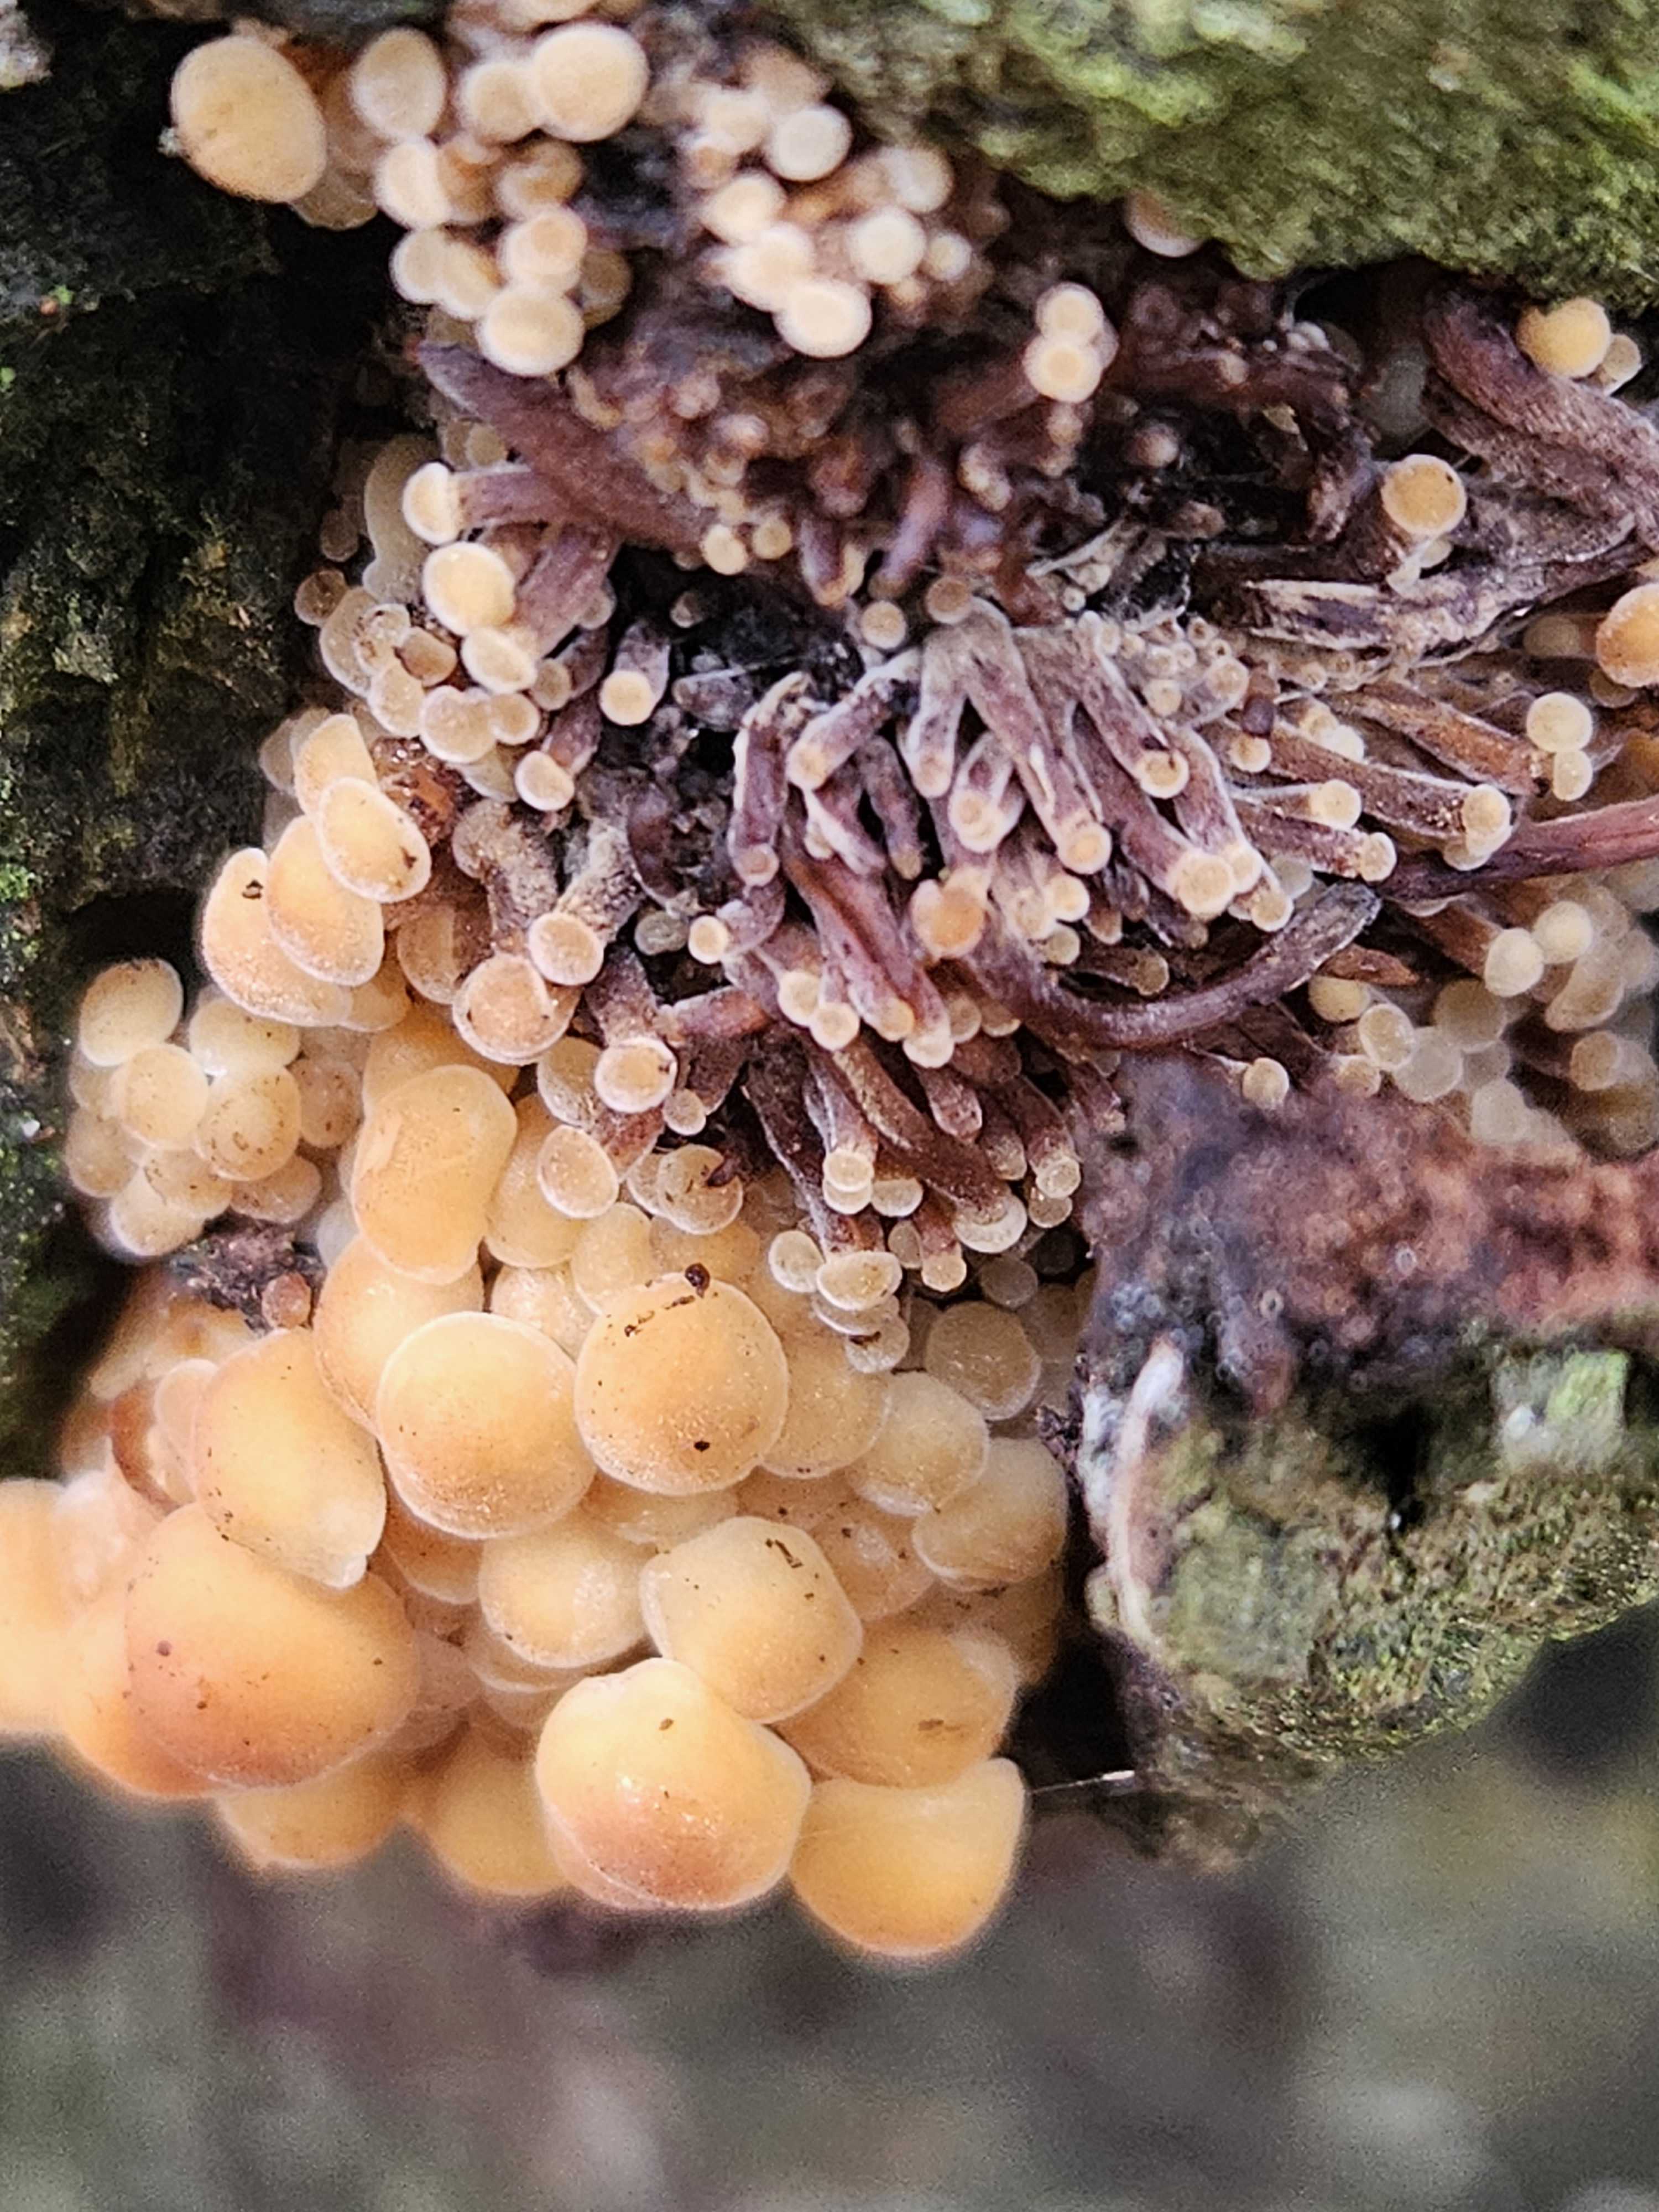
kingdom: Fungi
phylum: Basidiomycota
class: Agaricomycetes
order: Agaricales
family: Physalacriaceae
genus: Flammulina
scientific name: Flammulina velutipes
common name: gul fløjlsfod
